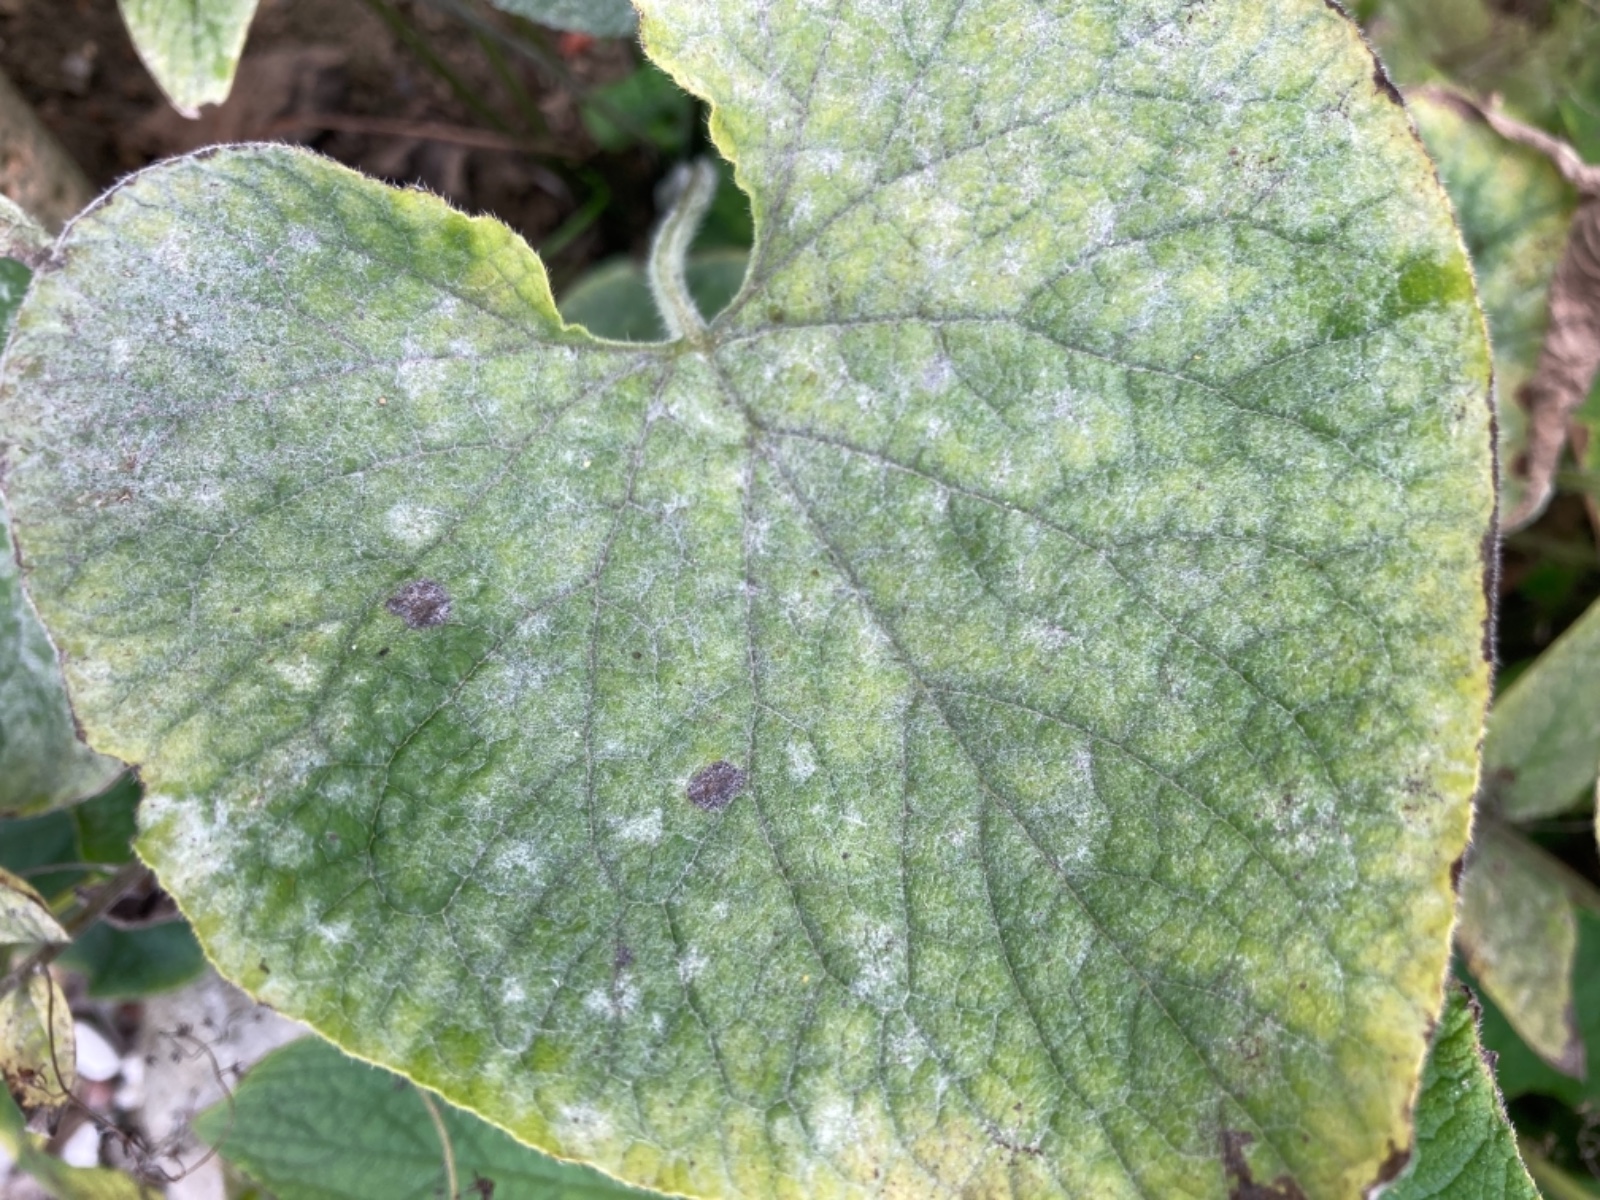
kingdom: Fungi
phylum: Ascomycota
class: Leotiomycetes
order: Helotiales
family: Erysiphaceae
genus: Golovinomyces
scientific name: Golovinomyces
